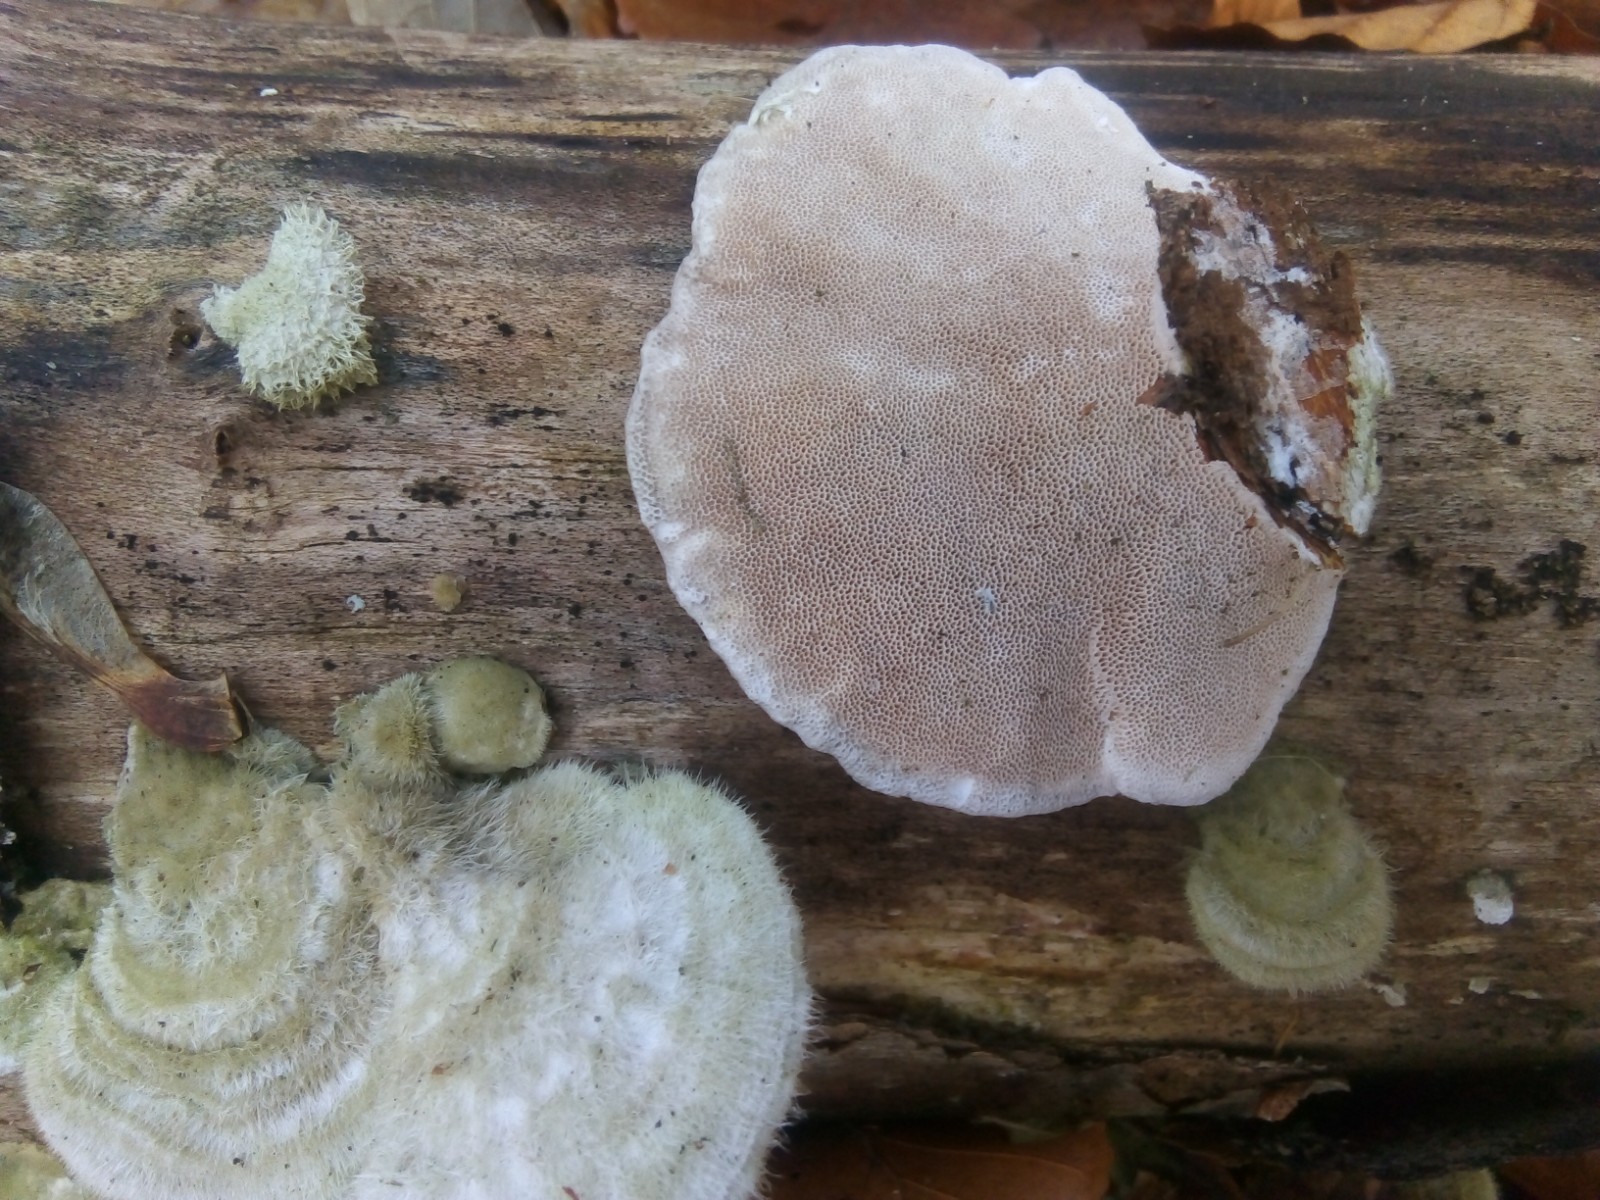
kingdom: Fungi
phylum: Basidiomycota
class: Agaricomycetes
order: Polyporales
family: Polyporaceae
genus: Trametes
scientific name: Trametes hirsuta
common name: håret læderporesvamp
